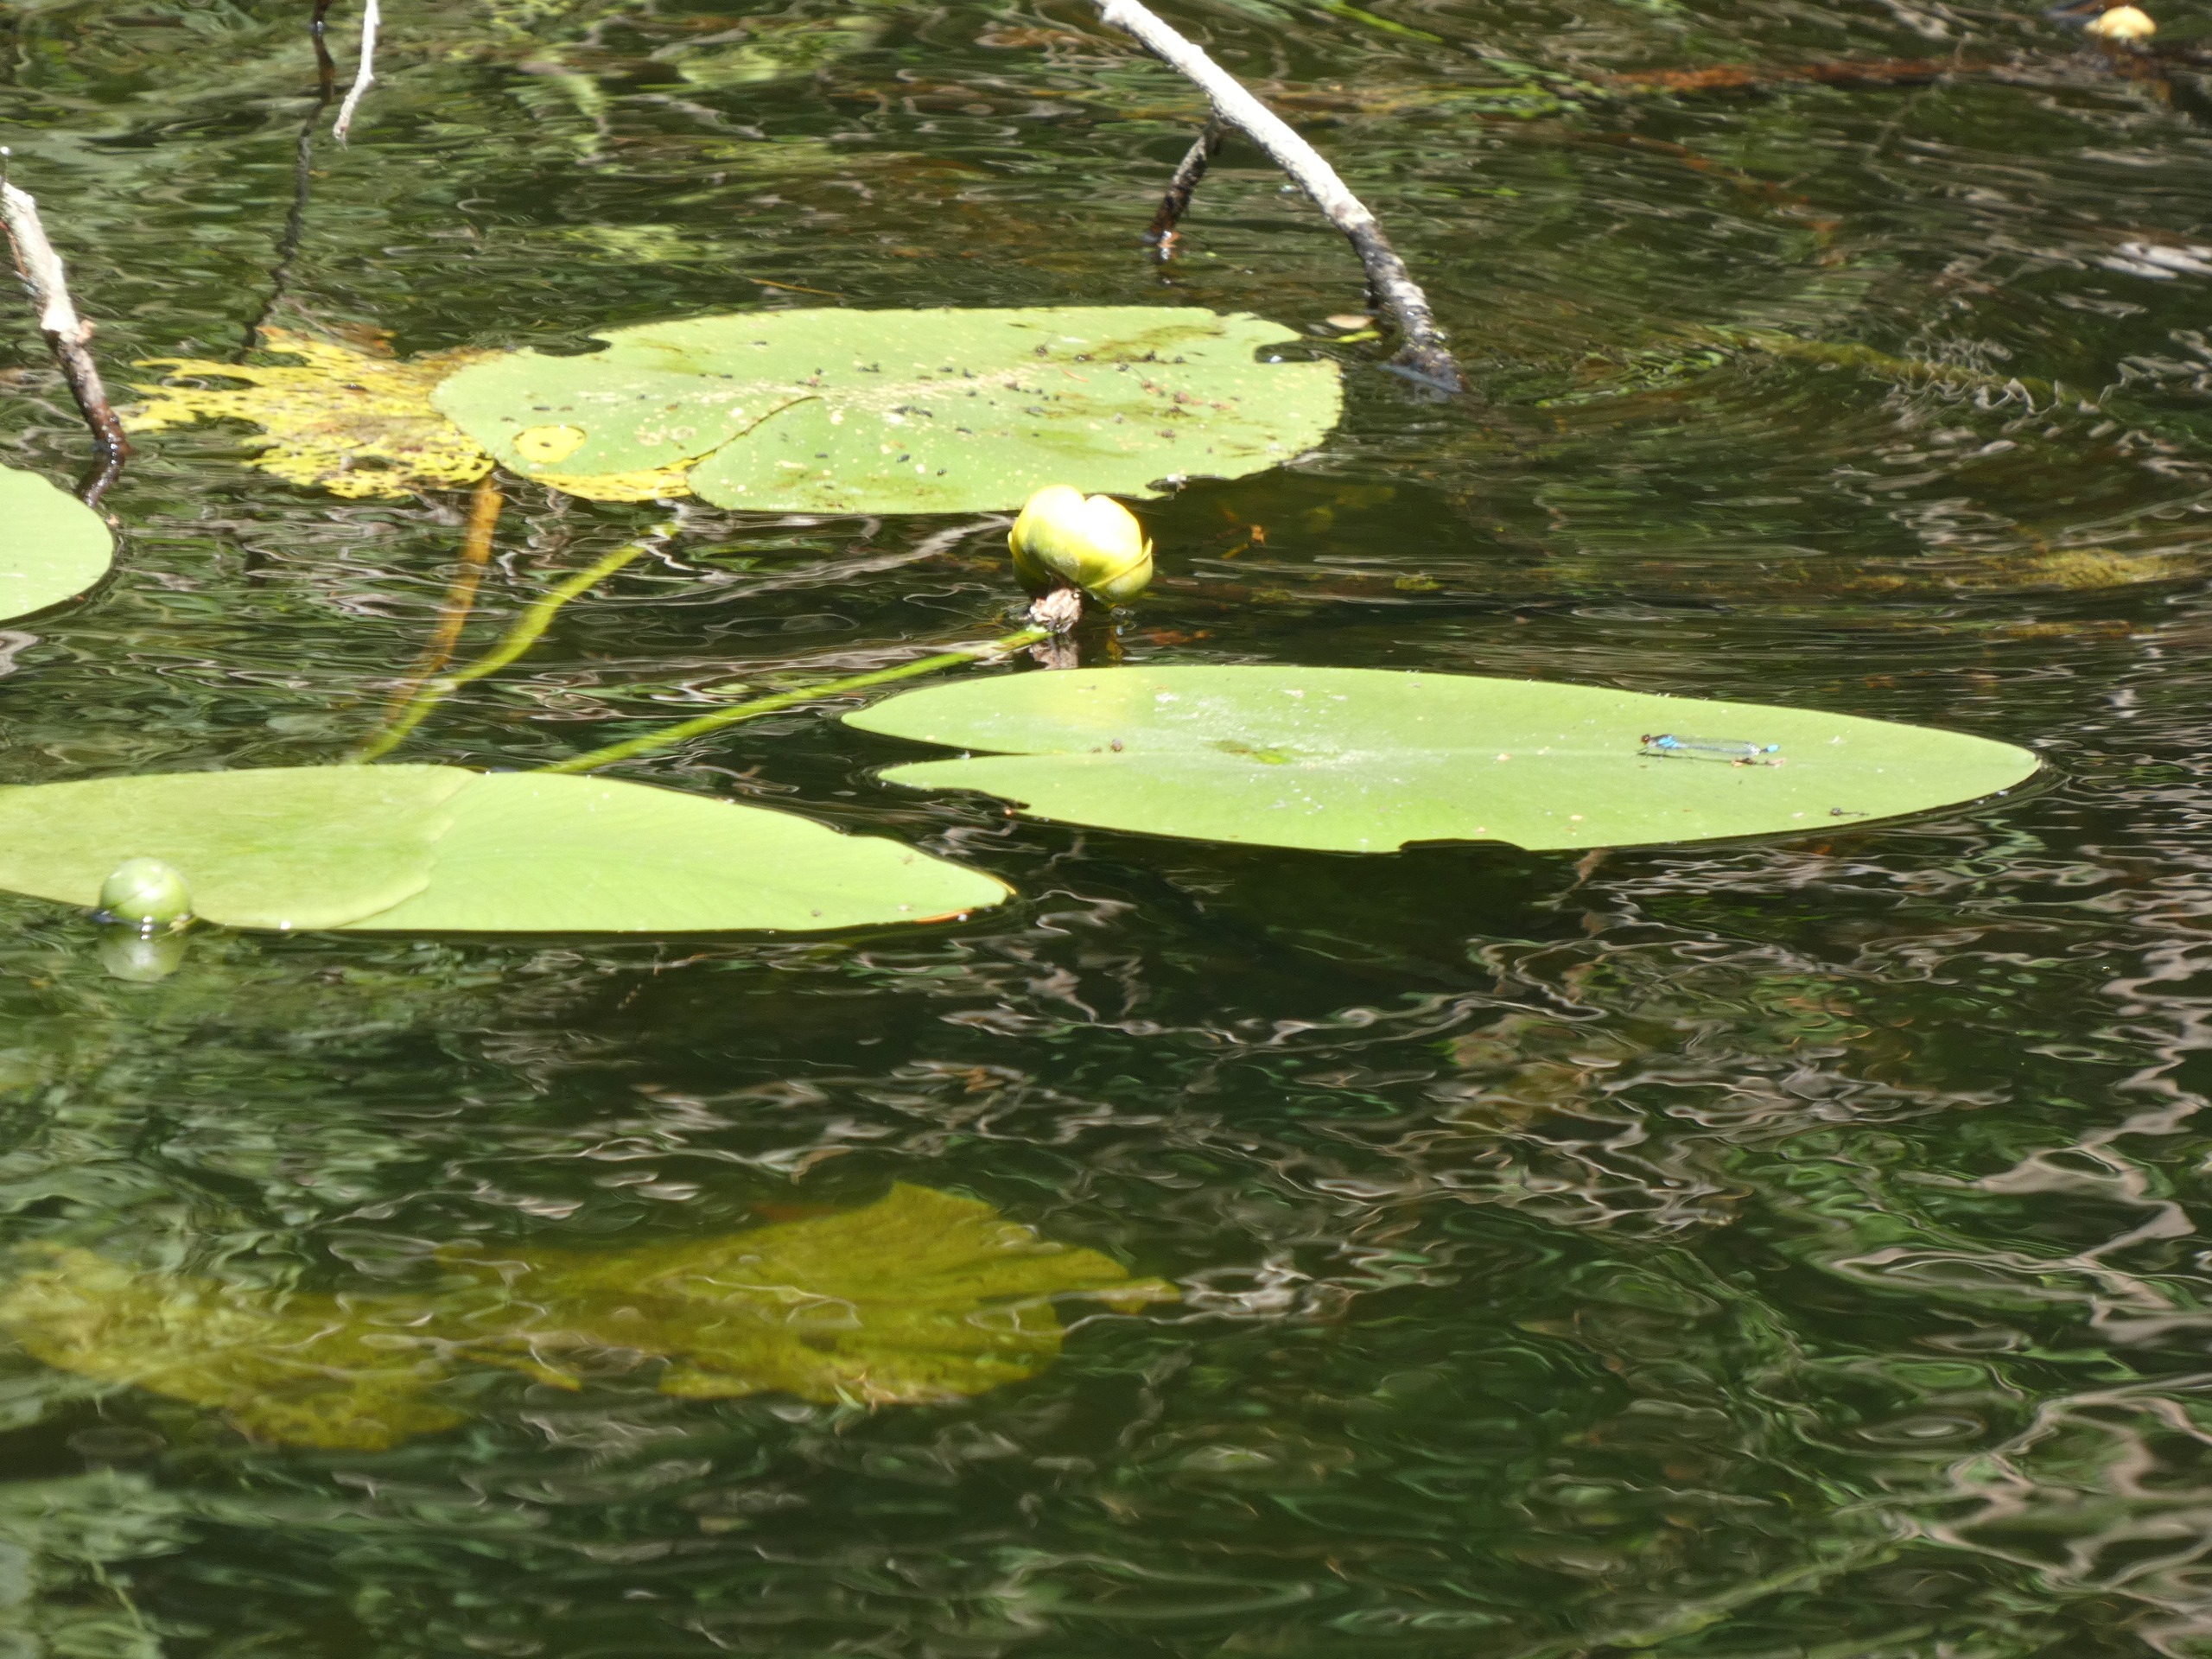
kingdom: Plantae
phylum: Tracheophyta
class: Magnoliopsida
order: Nymphaeales
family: Nymphaeaceae
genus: Nuphar
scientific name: Nuphar lutea
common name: Gul åkande
